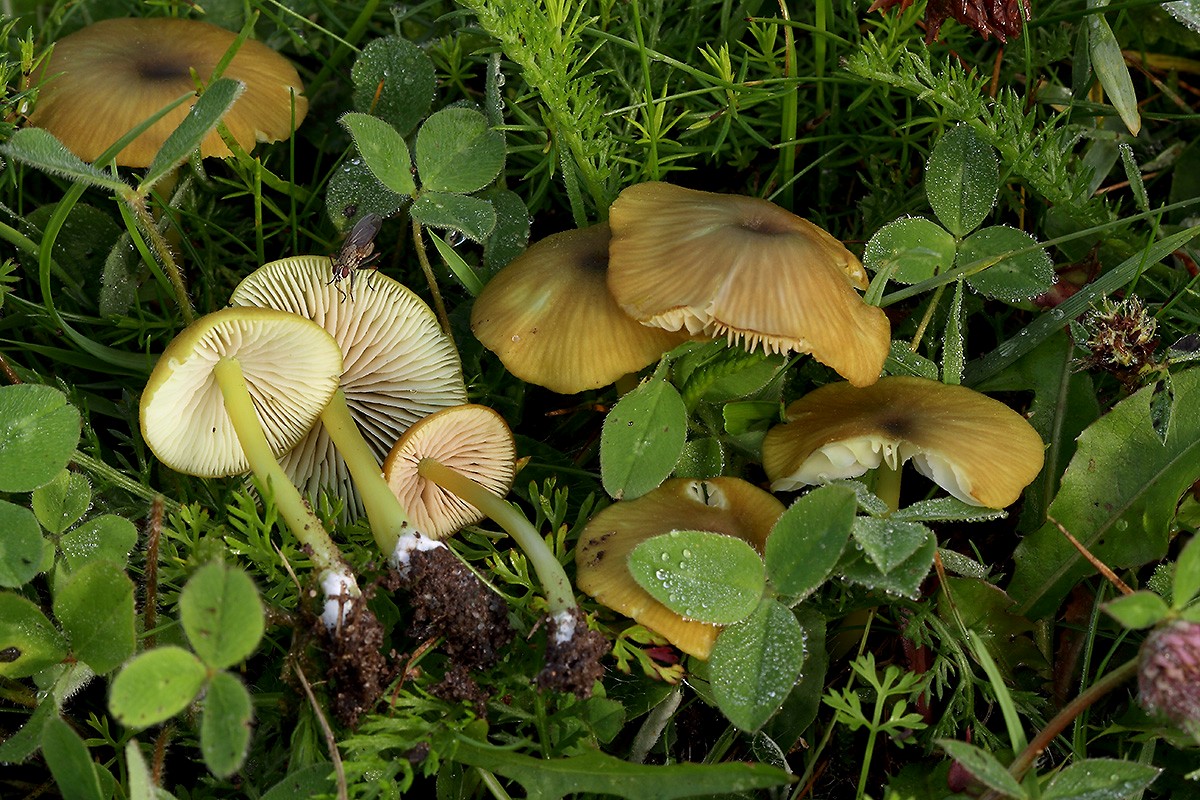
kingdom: Fungi
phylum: Basidiomycota
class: Agaricomycetes
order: Agaricales
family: Entolomataceae
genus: Entoloma
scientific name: Entoloma incanum
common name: grøngul rødblad
